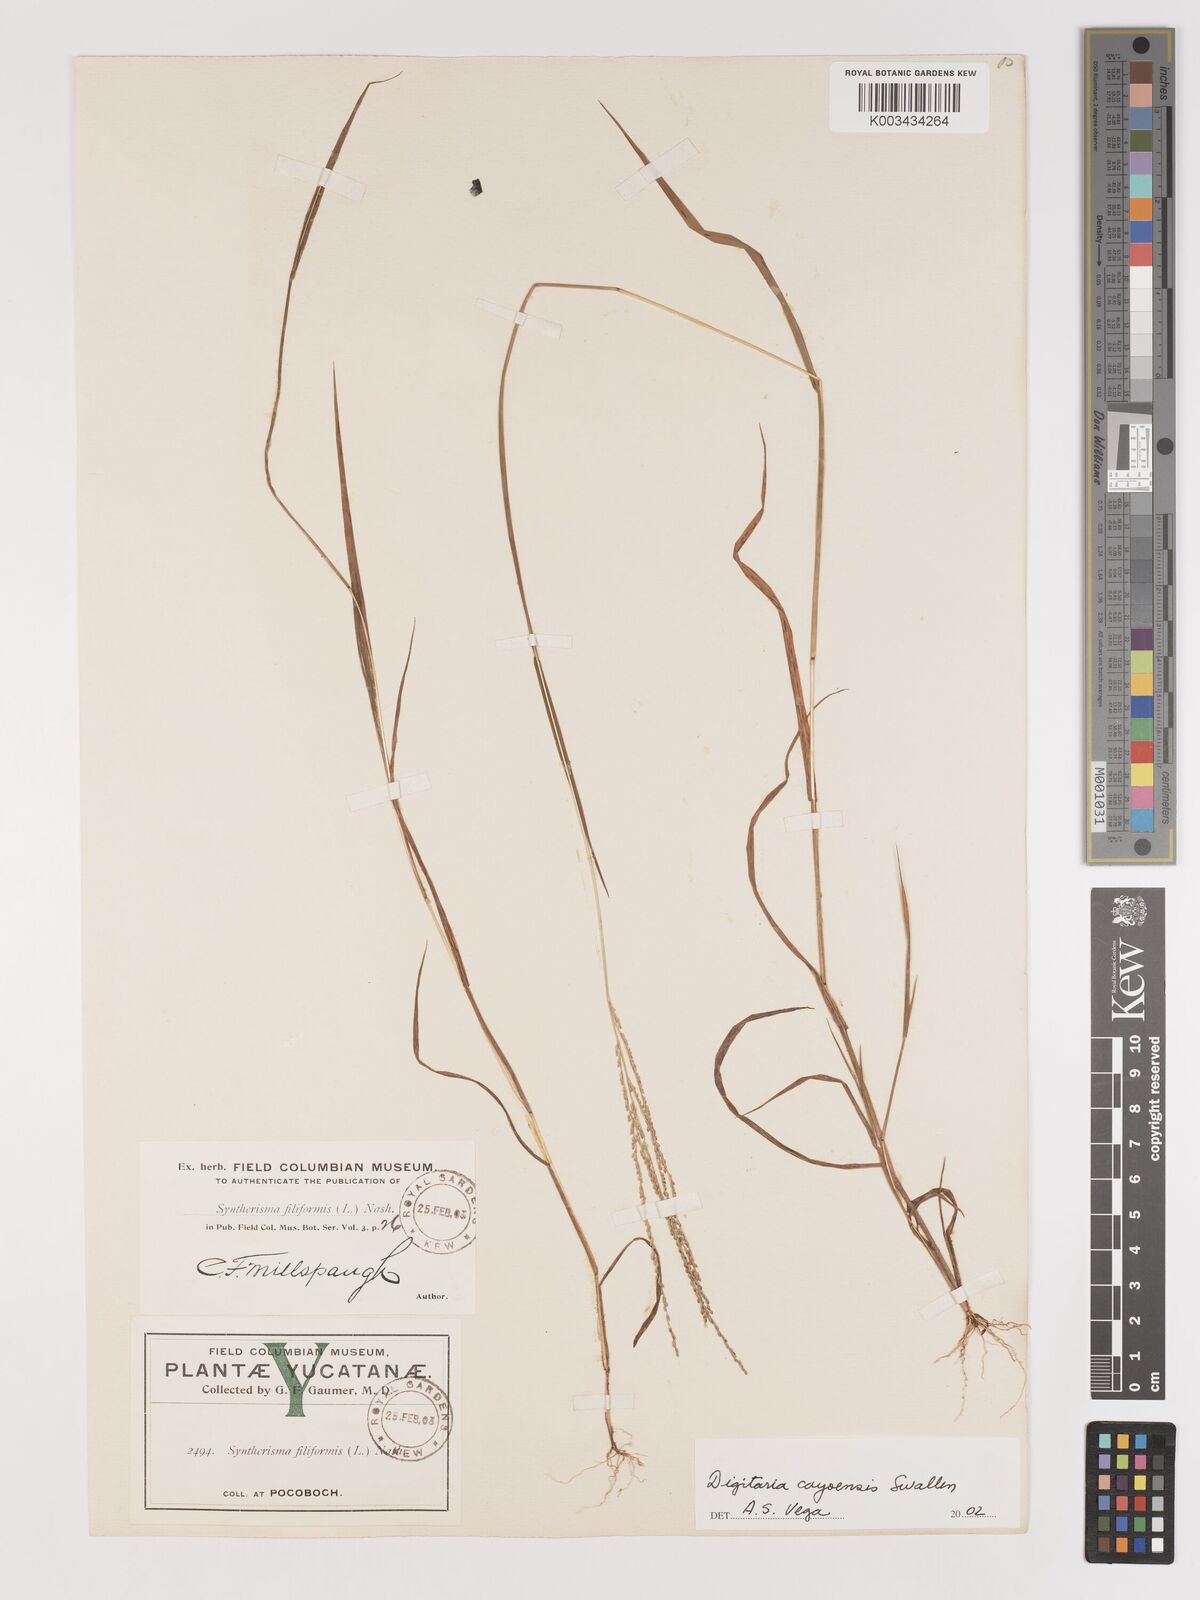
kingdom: Plantae
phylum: Tracheophyta
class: Liliopsida
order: Poales
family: Poaceae
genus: Digitaria
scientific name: Digitaria cayoensis
